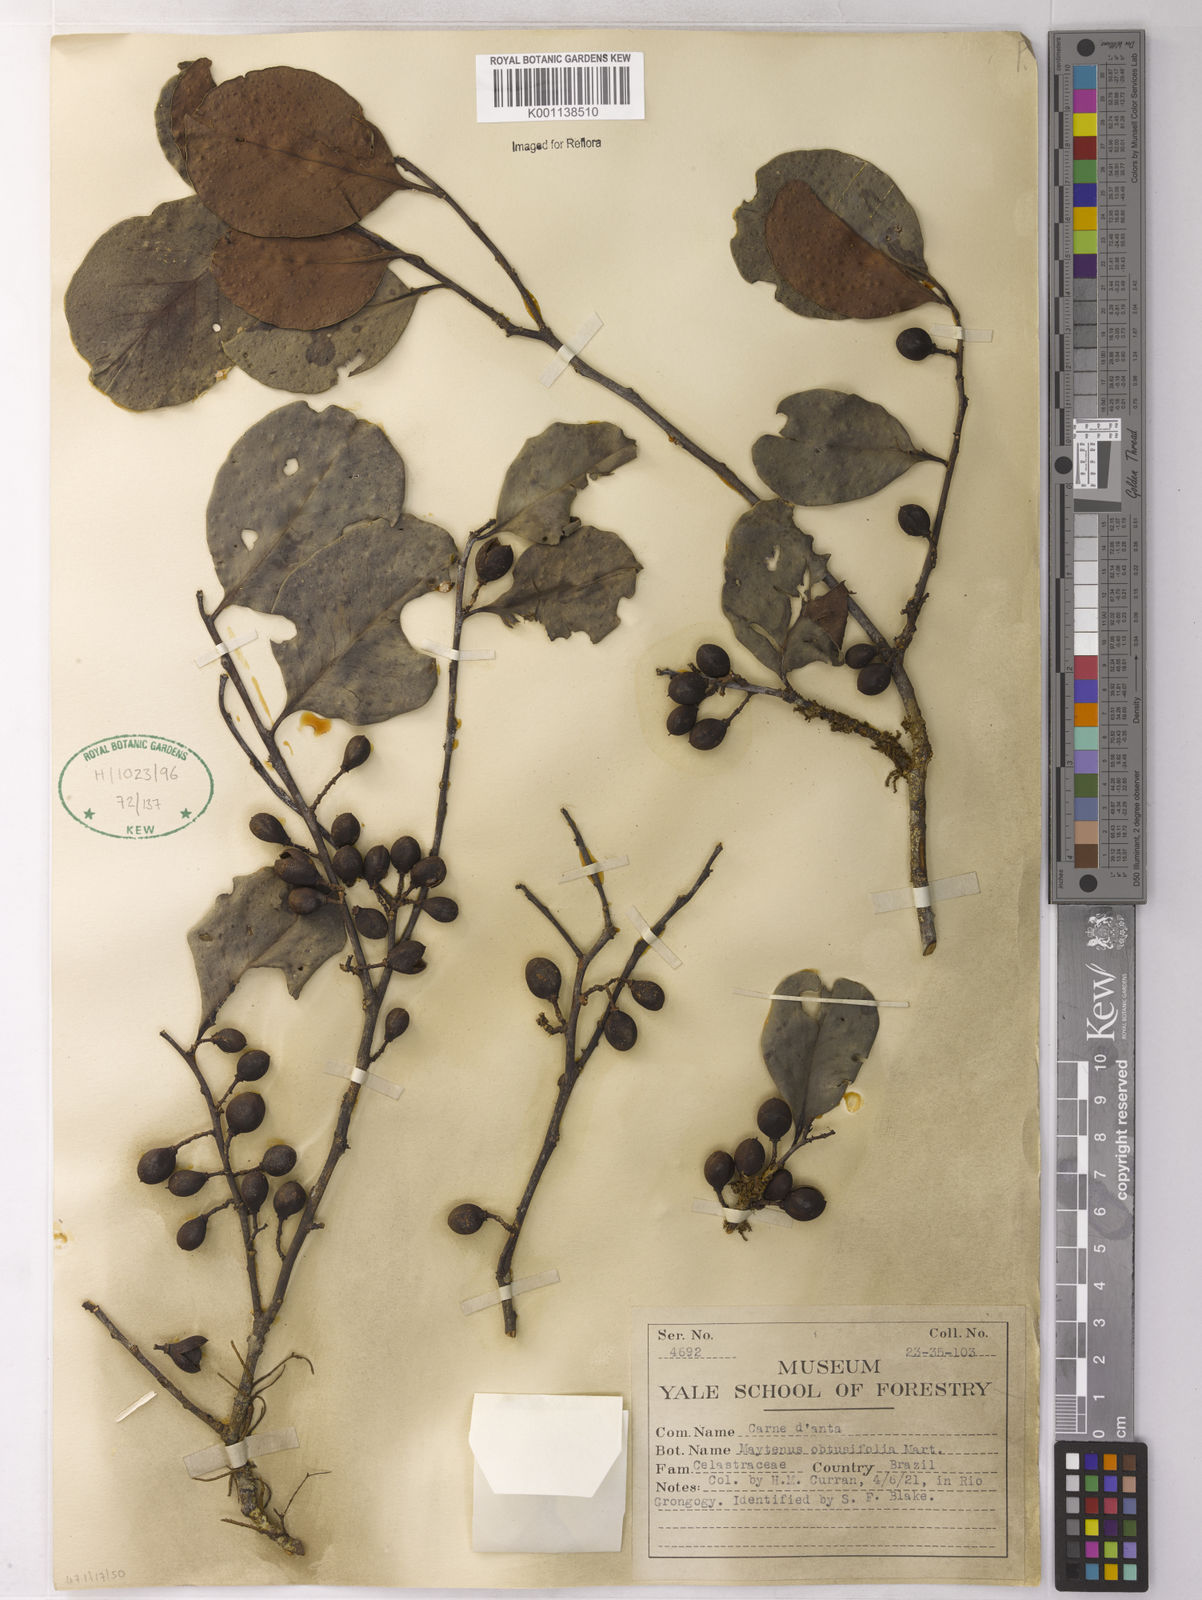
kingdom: Plantae
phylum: Tracheophyta
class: Magnoliopsida
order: Celastrales
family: Celastraceae
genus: Monteverdia
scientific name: Monteverdia obtusifolia
